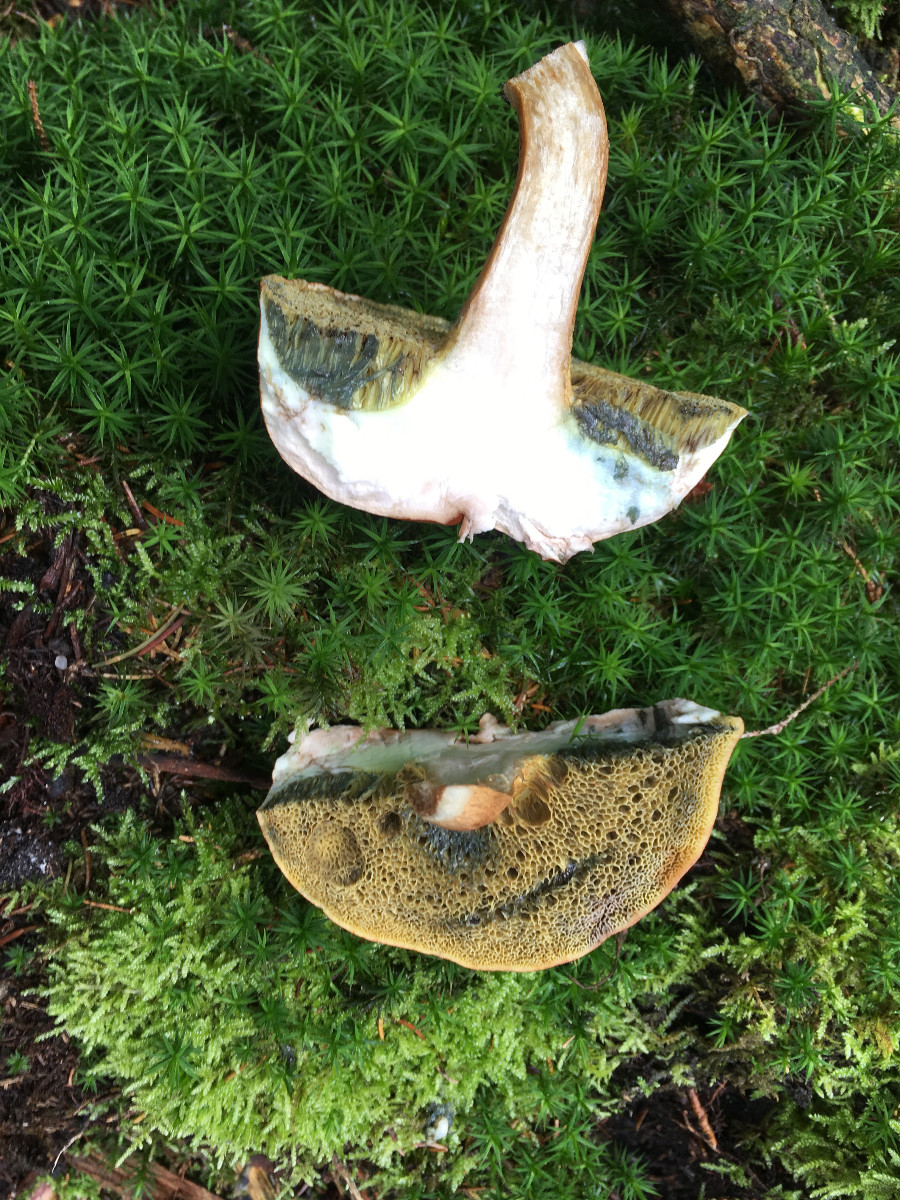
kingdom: Fungi
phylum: Basidiomycota
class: Agaricomycetes
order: Boletales
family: Boletaceae
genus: Imleria
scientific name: Imleria badia
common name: brunstokket rørhat
